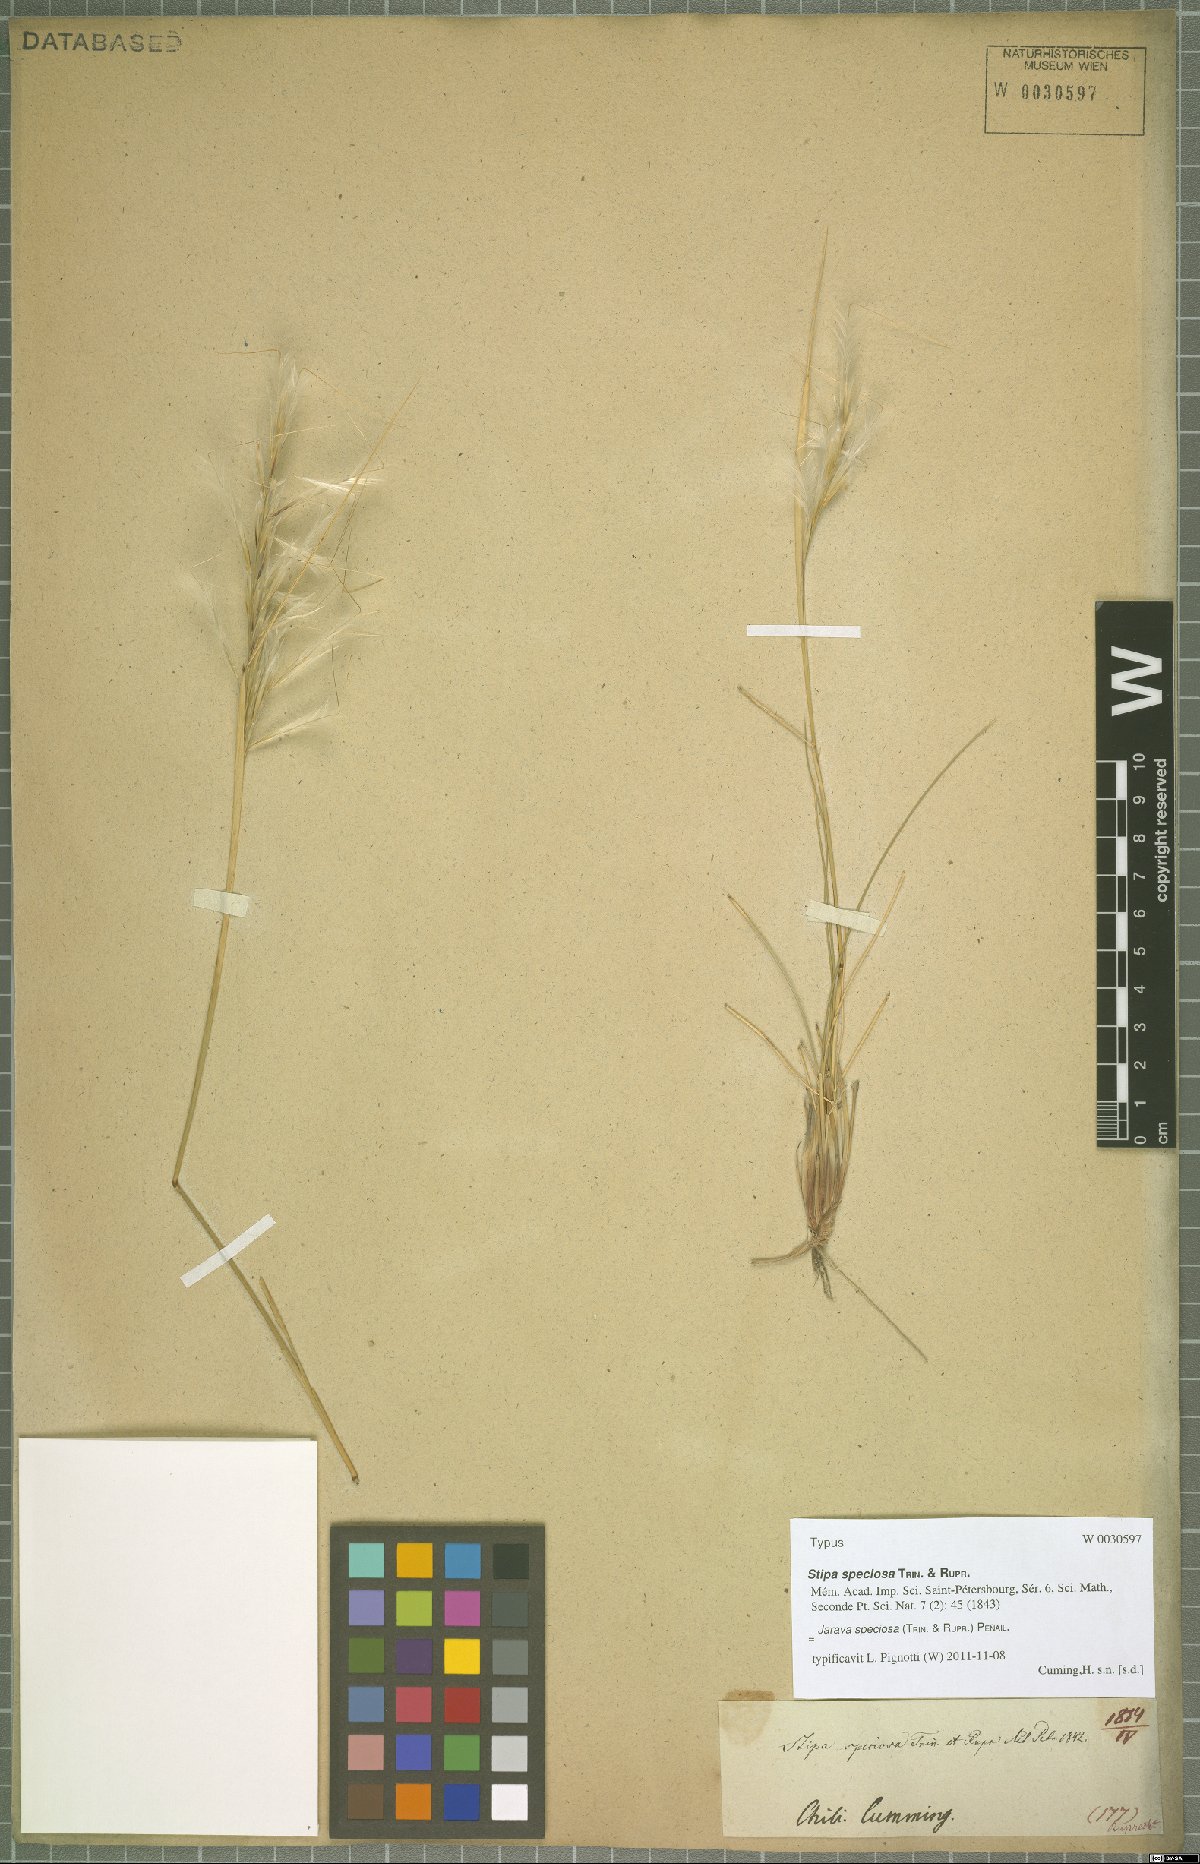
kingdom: Plantae
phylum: Tracheophyta
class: Liliopsida
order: Poales
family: Poaceae
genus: Pappostipa
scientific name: Pappostipa speciosa
